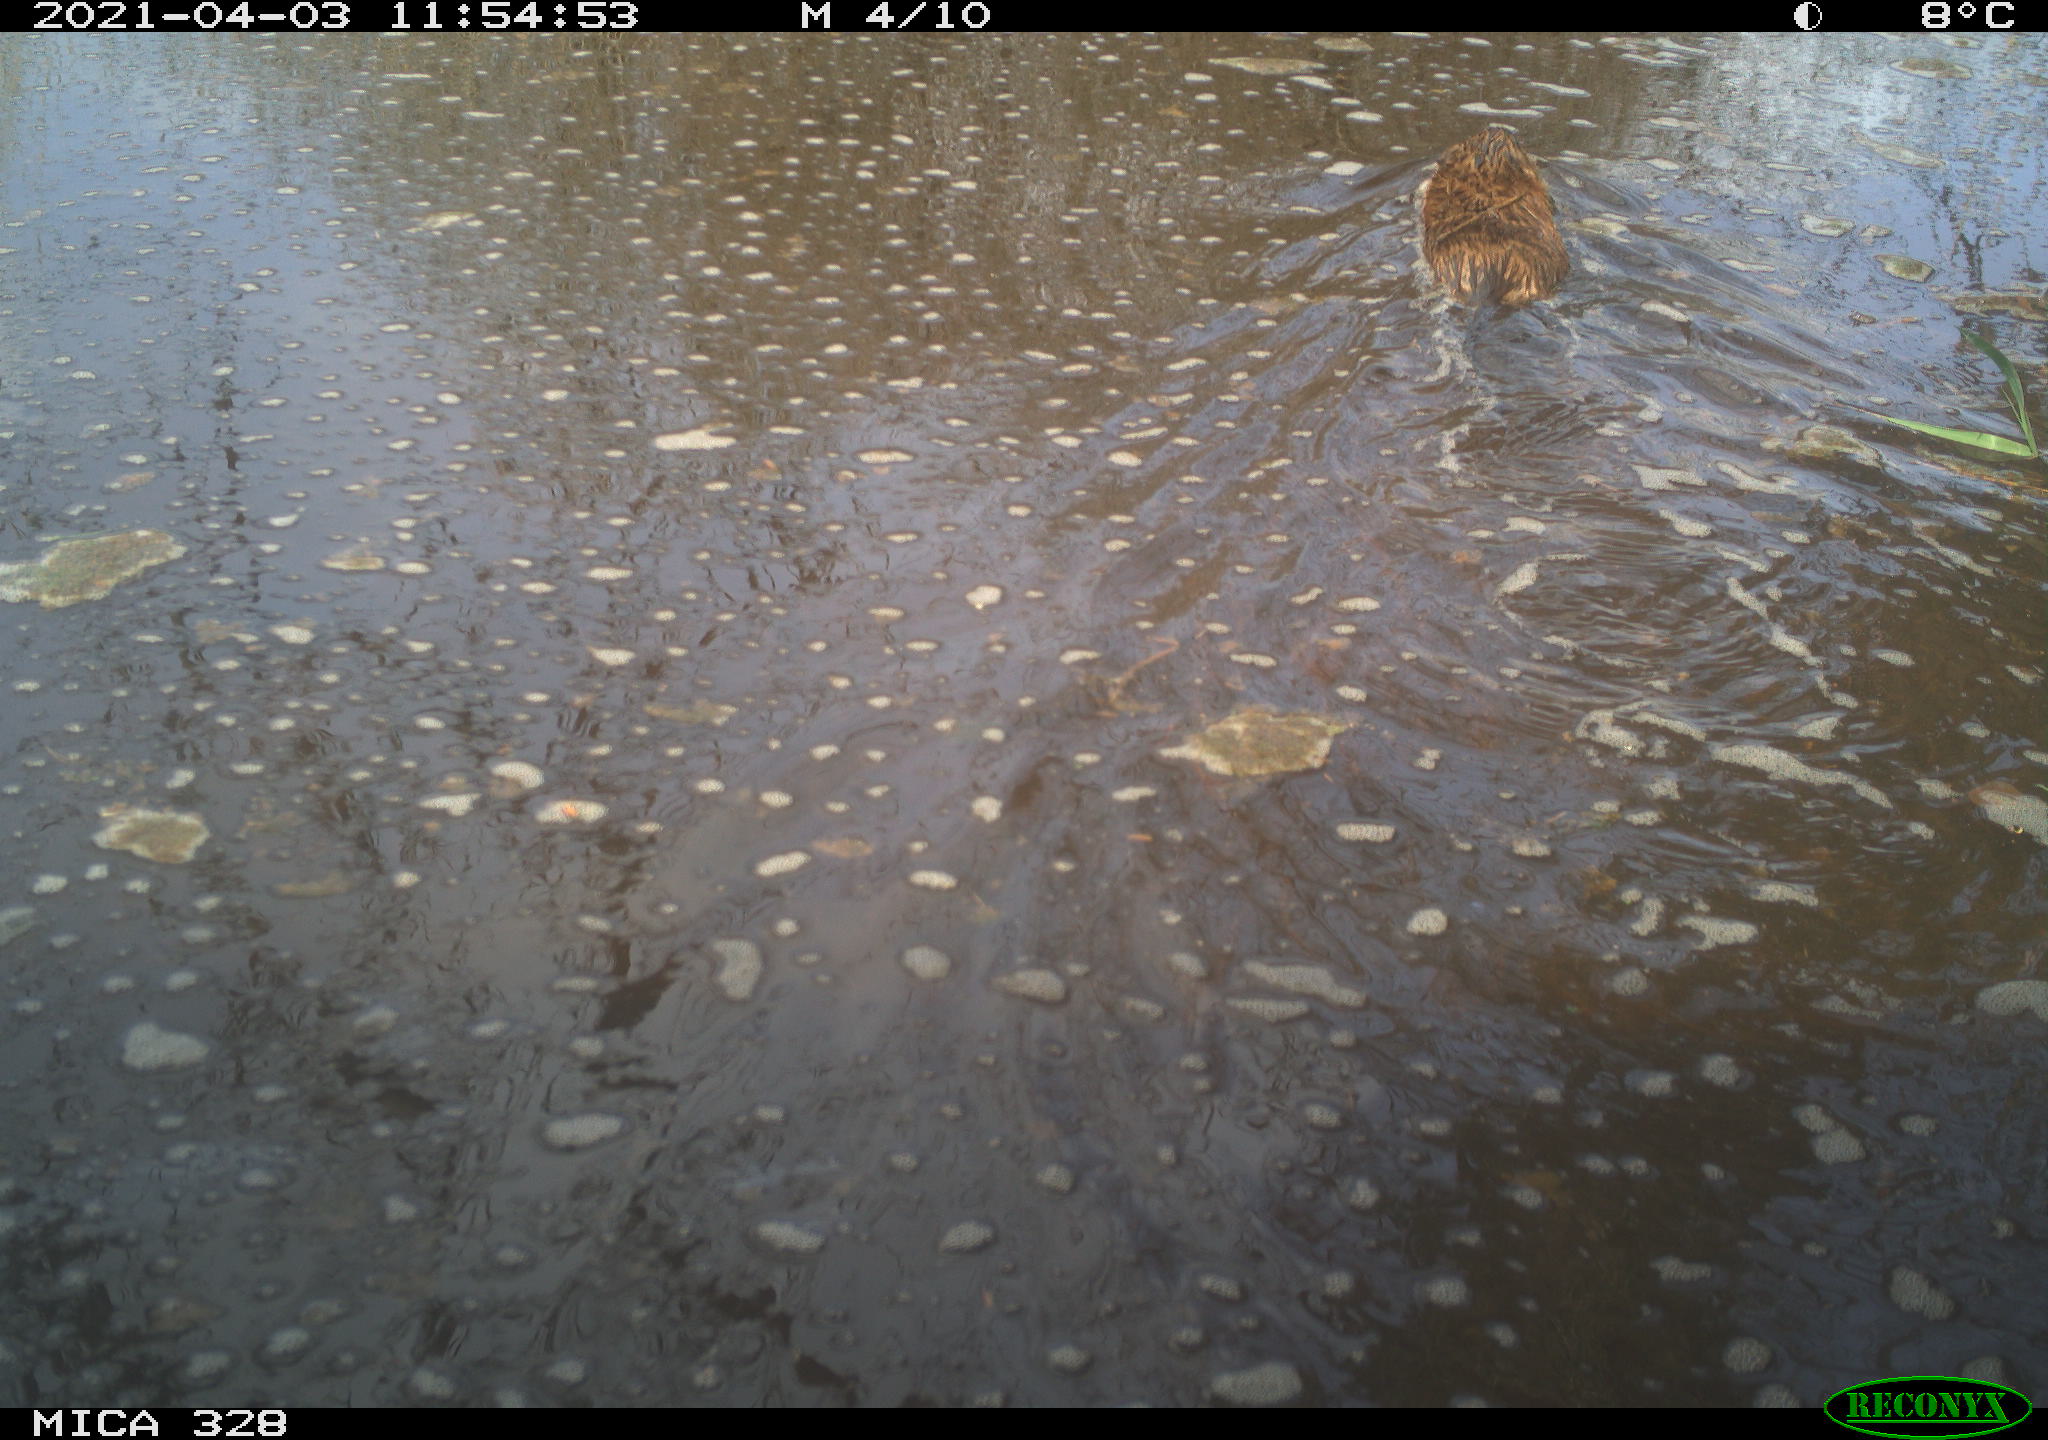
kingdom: Animalia
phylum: Chordata
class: Mammalia
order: Rodentia
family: Cricetidae
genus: Ondatra
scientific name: Ondatra zibethicus
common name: Muskrat
